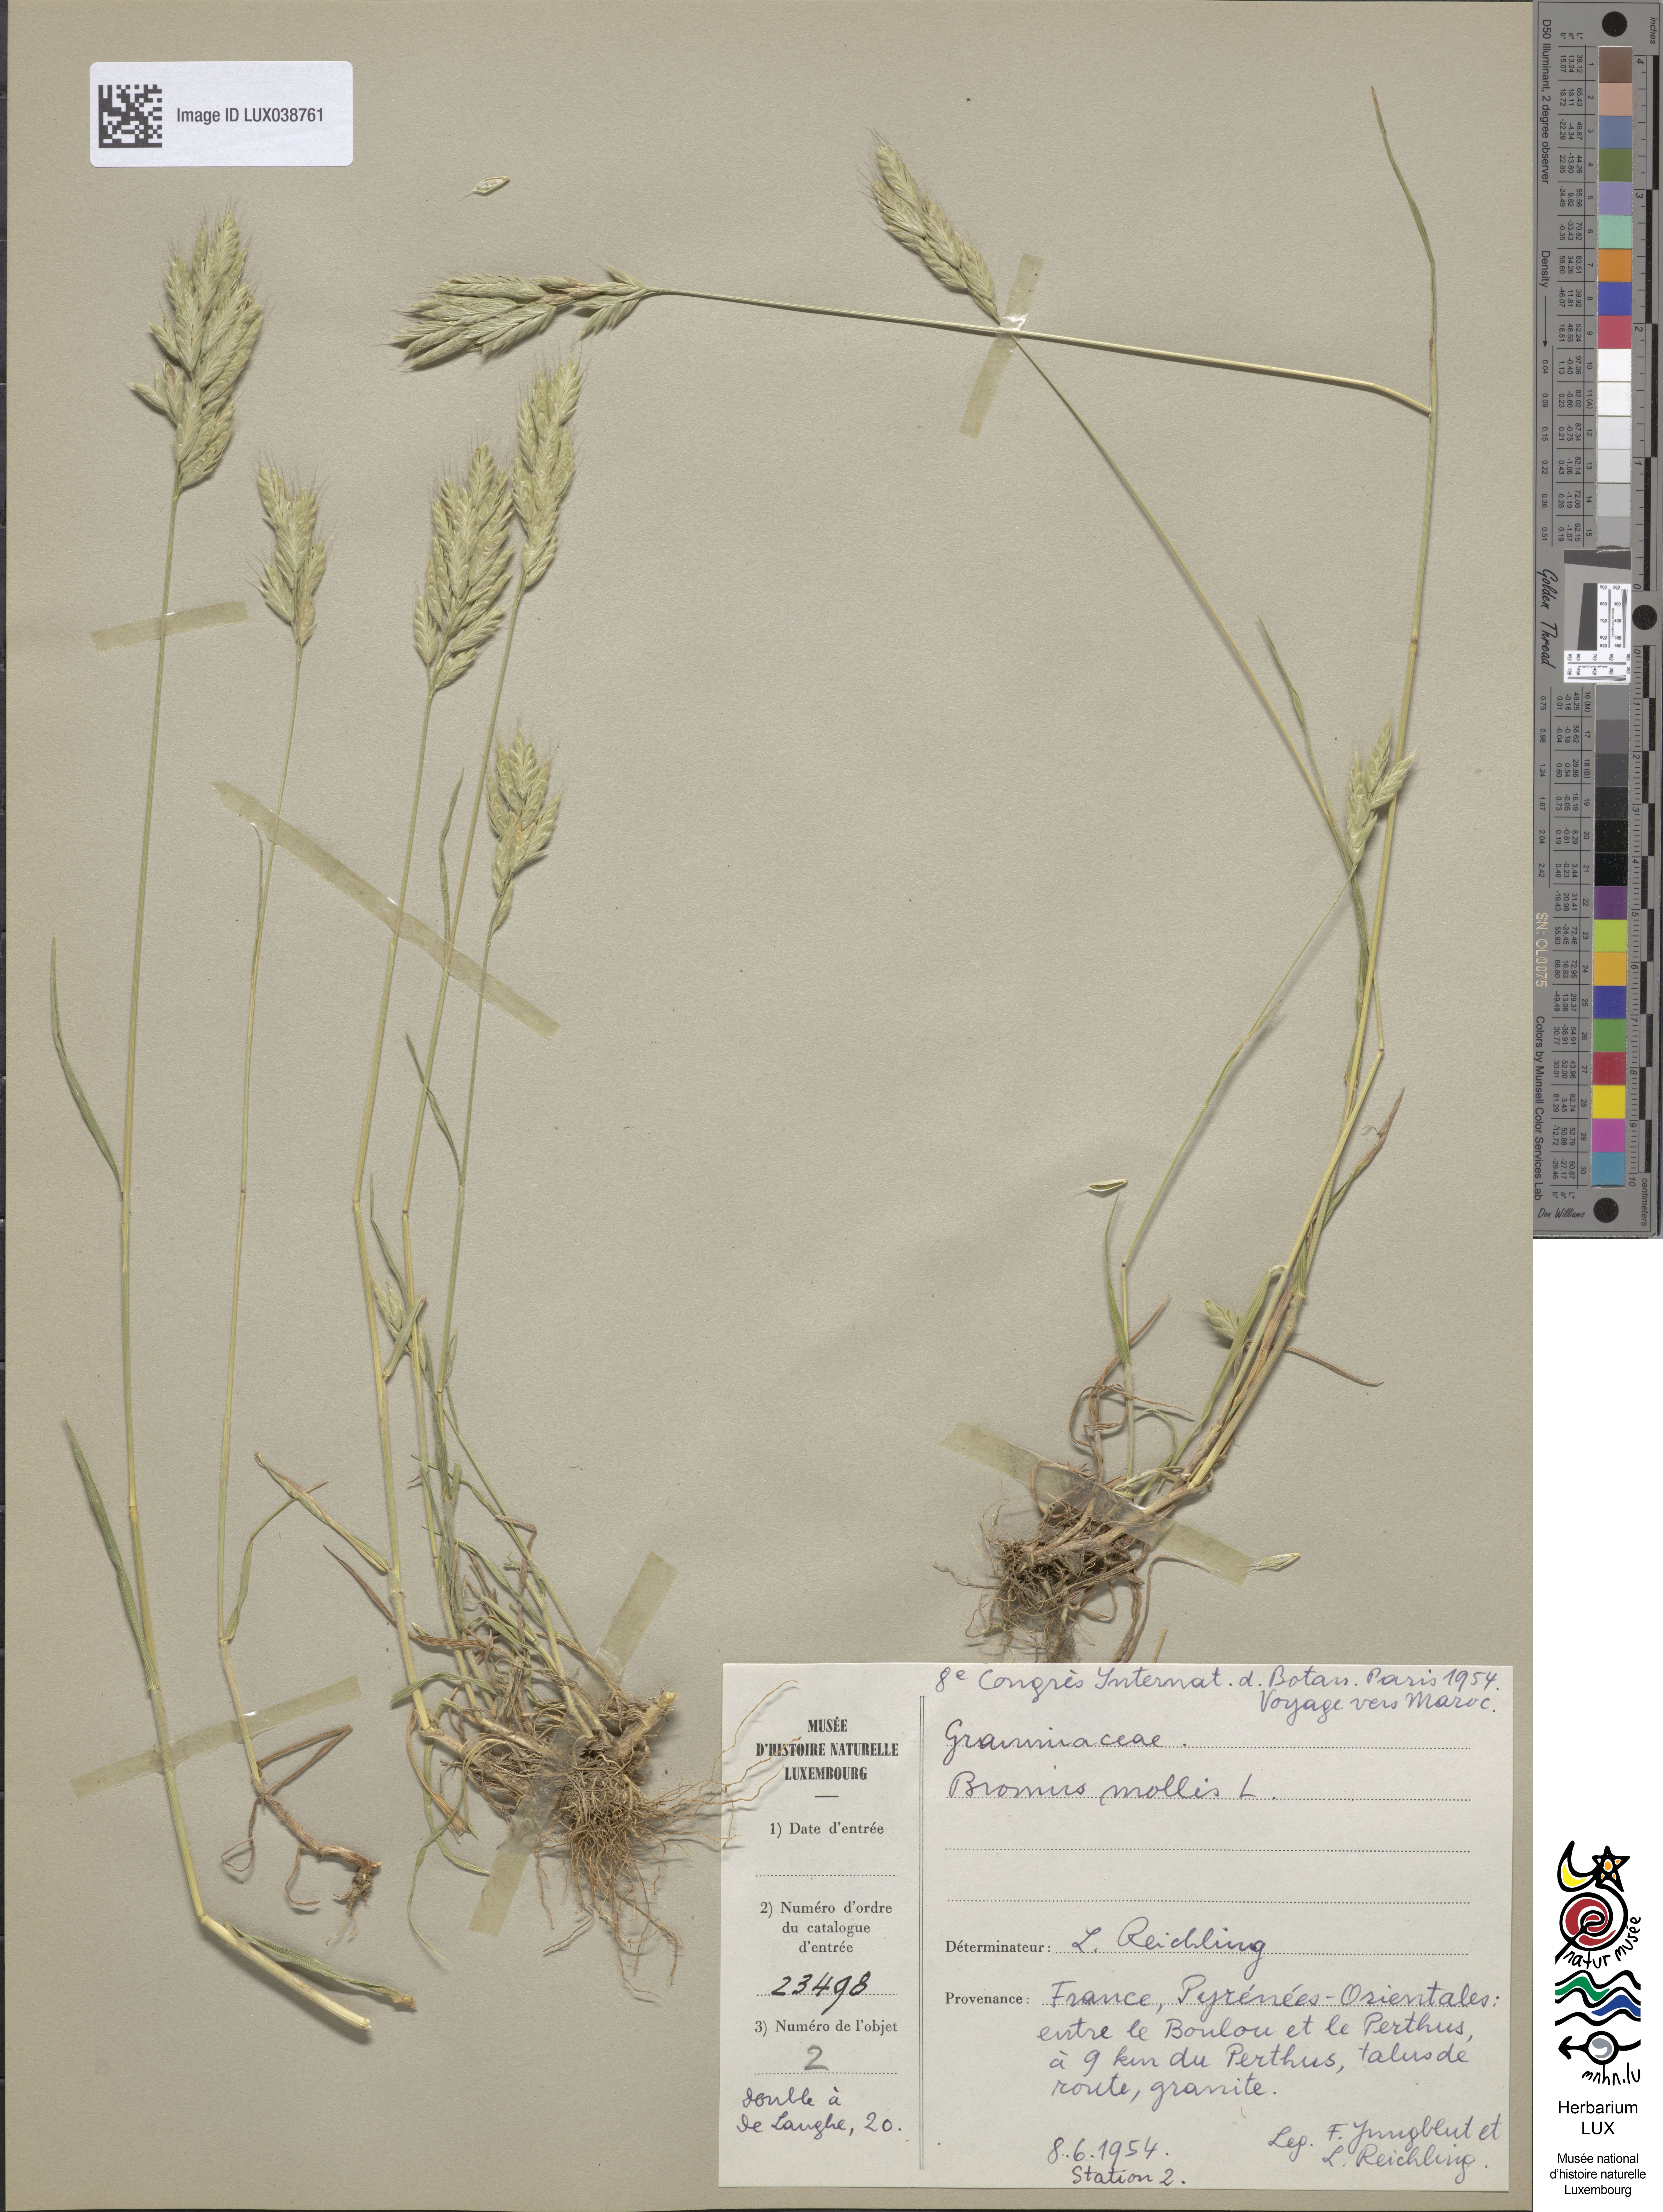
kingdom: Plantae
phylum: Tracheophyta
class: Liliopsida
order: Poales
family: Poaceae
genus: Bromus
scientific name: Bromus hordeaceus
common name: Soft brome
